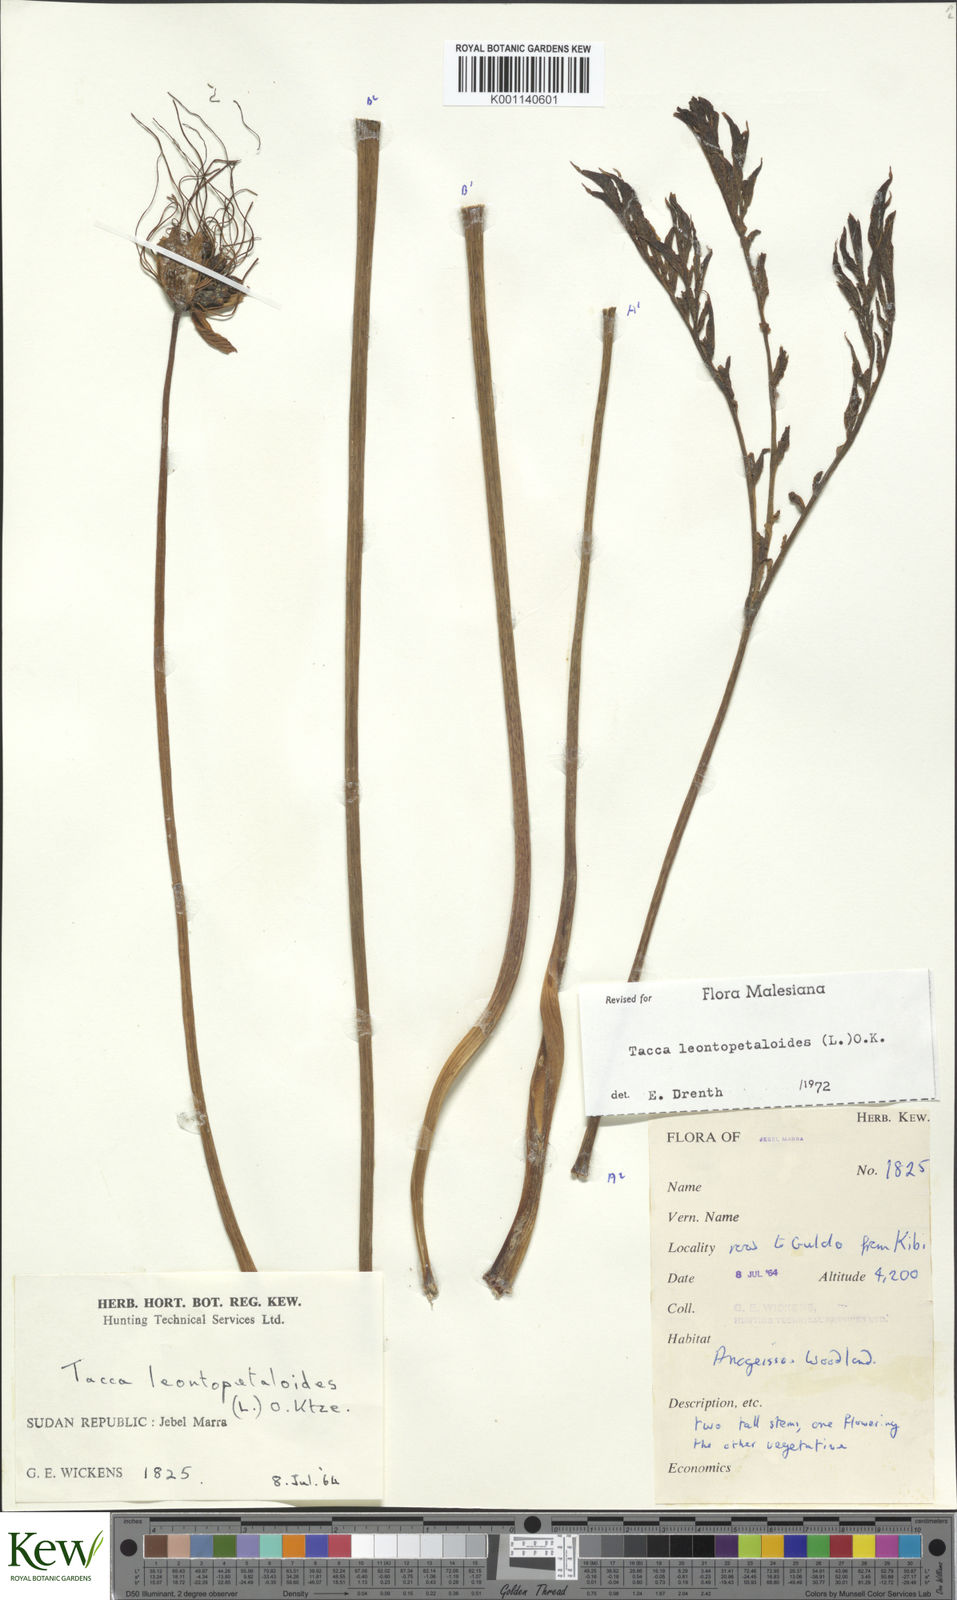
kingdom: Plantae
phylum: Tracheophyta
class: Liliopsida
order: Dioscoreales
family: Dioscoreaceae
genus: Tacca
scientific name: Tacca leontopetaloides
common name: Arrowroot
